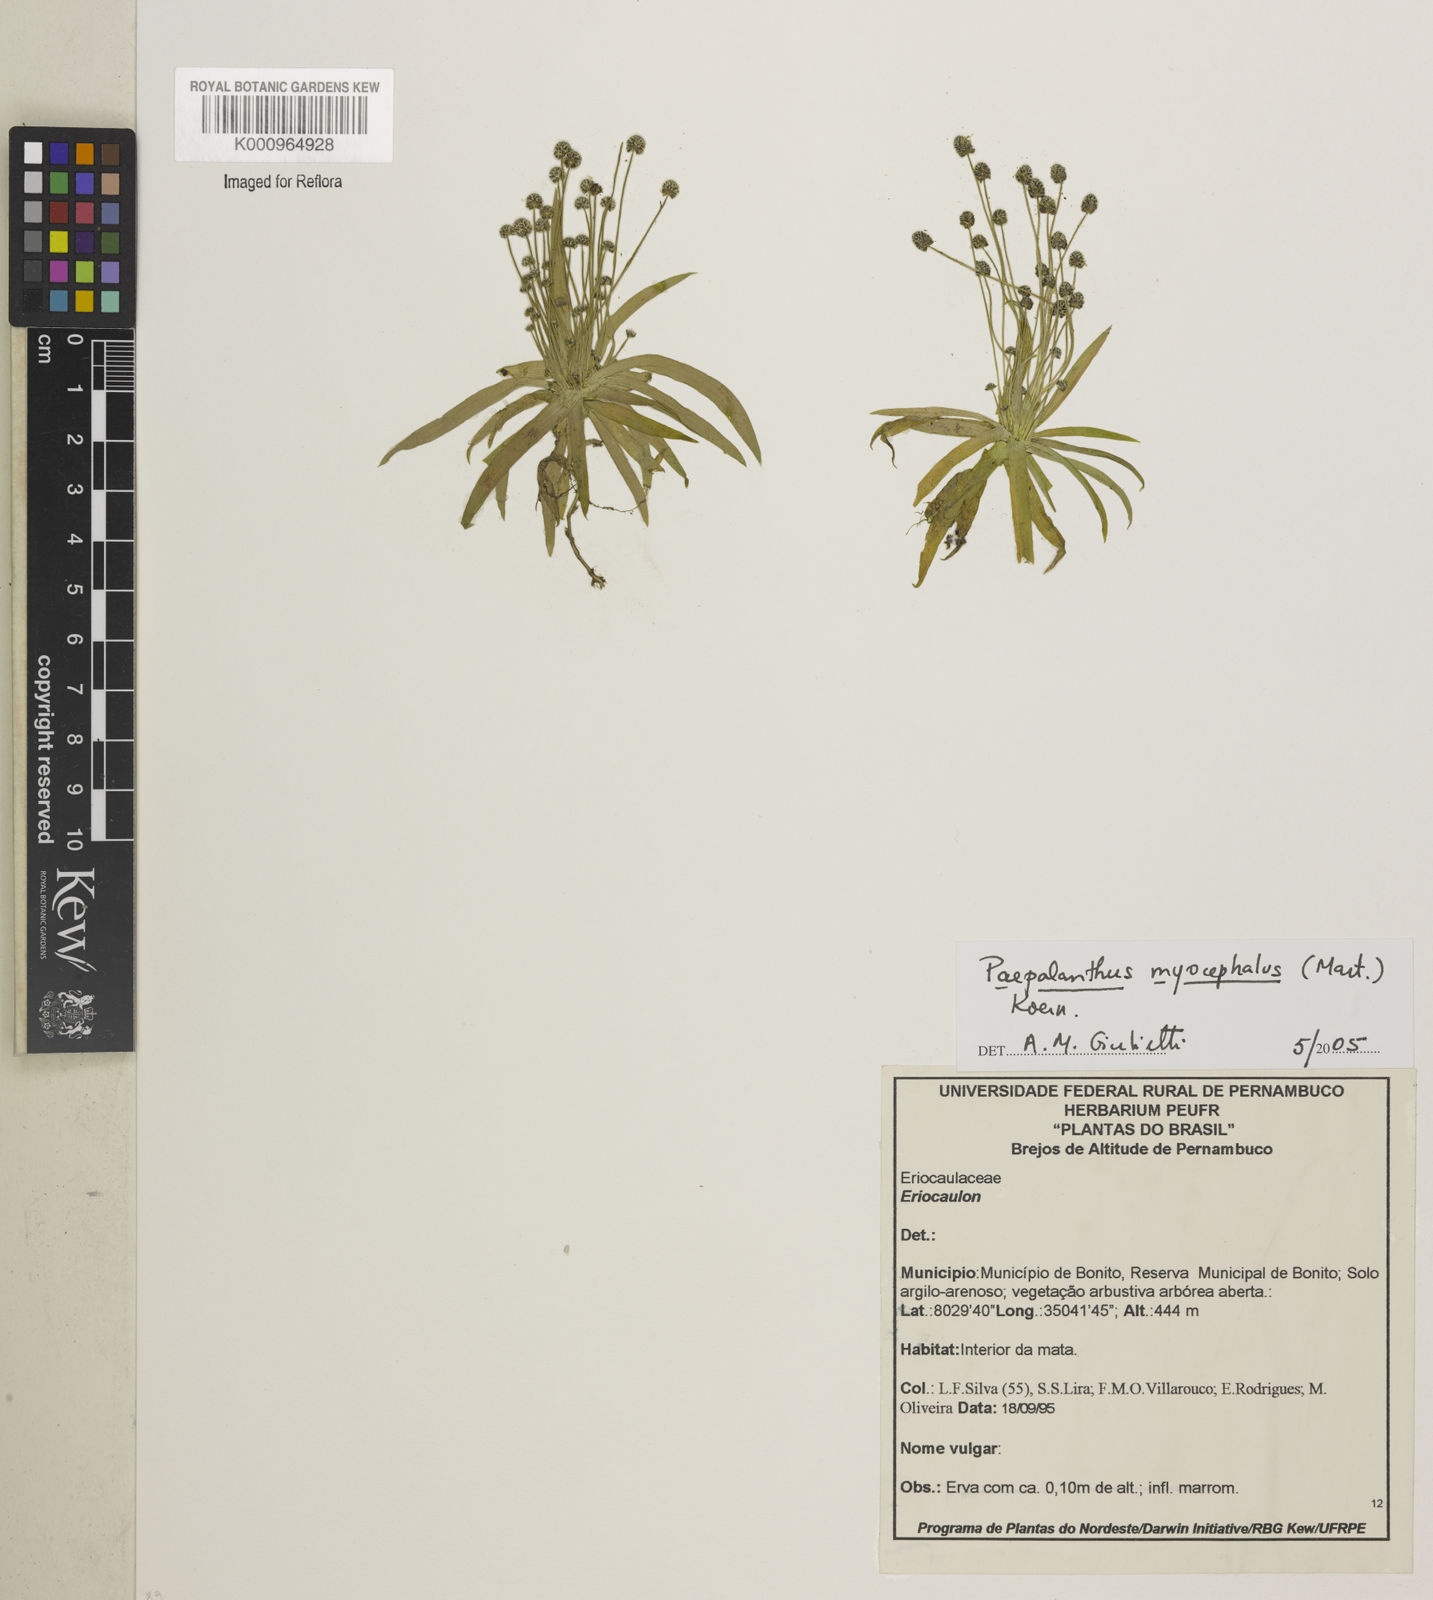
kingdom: Plantae
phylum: Tracheophyta
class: Liliopsida
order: Poales
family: Eriocaulaceae
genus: Paepalanthus
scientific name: Paepalanthus
